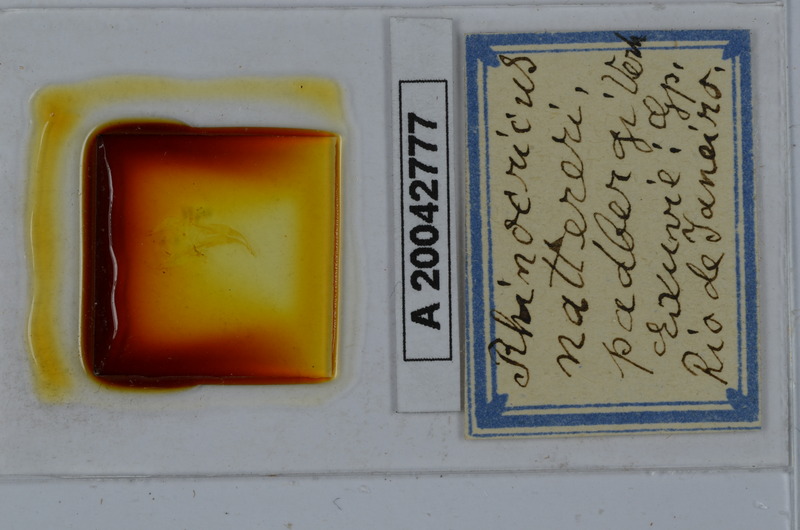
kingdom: Animalia
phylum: Arthropoda
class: Diplopoda
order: Spirobolida
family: Rhinocricidae
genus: Rhinocricus
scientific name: Rhinocricus padbergi
